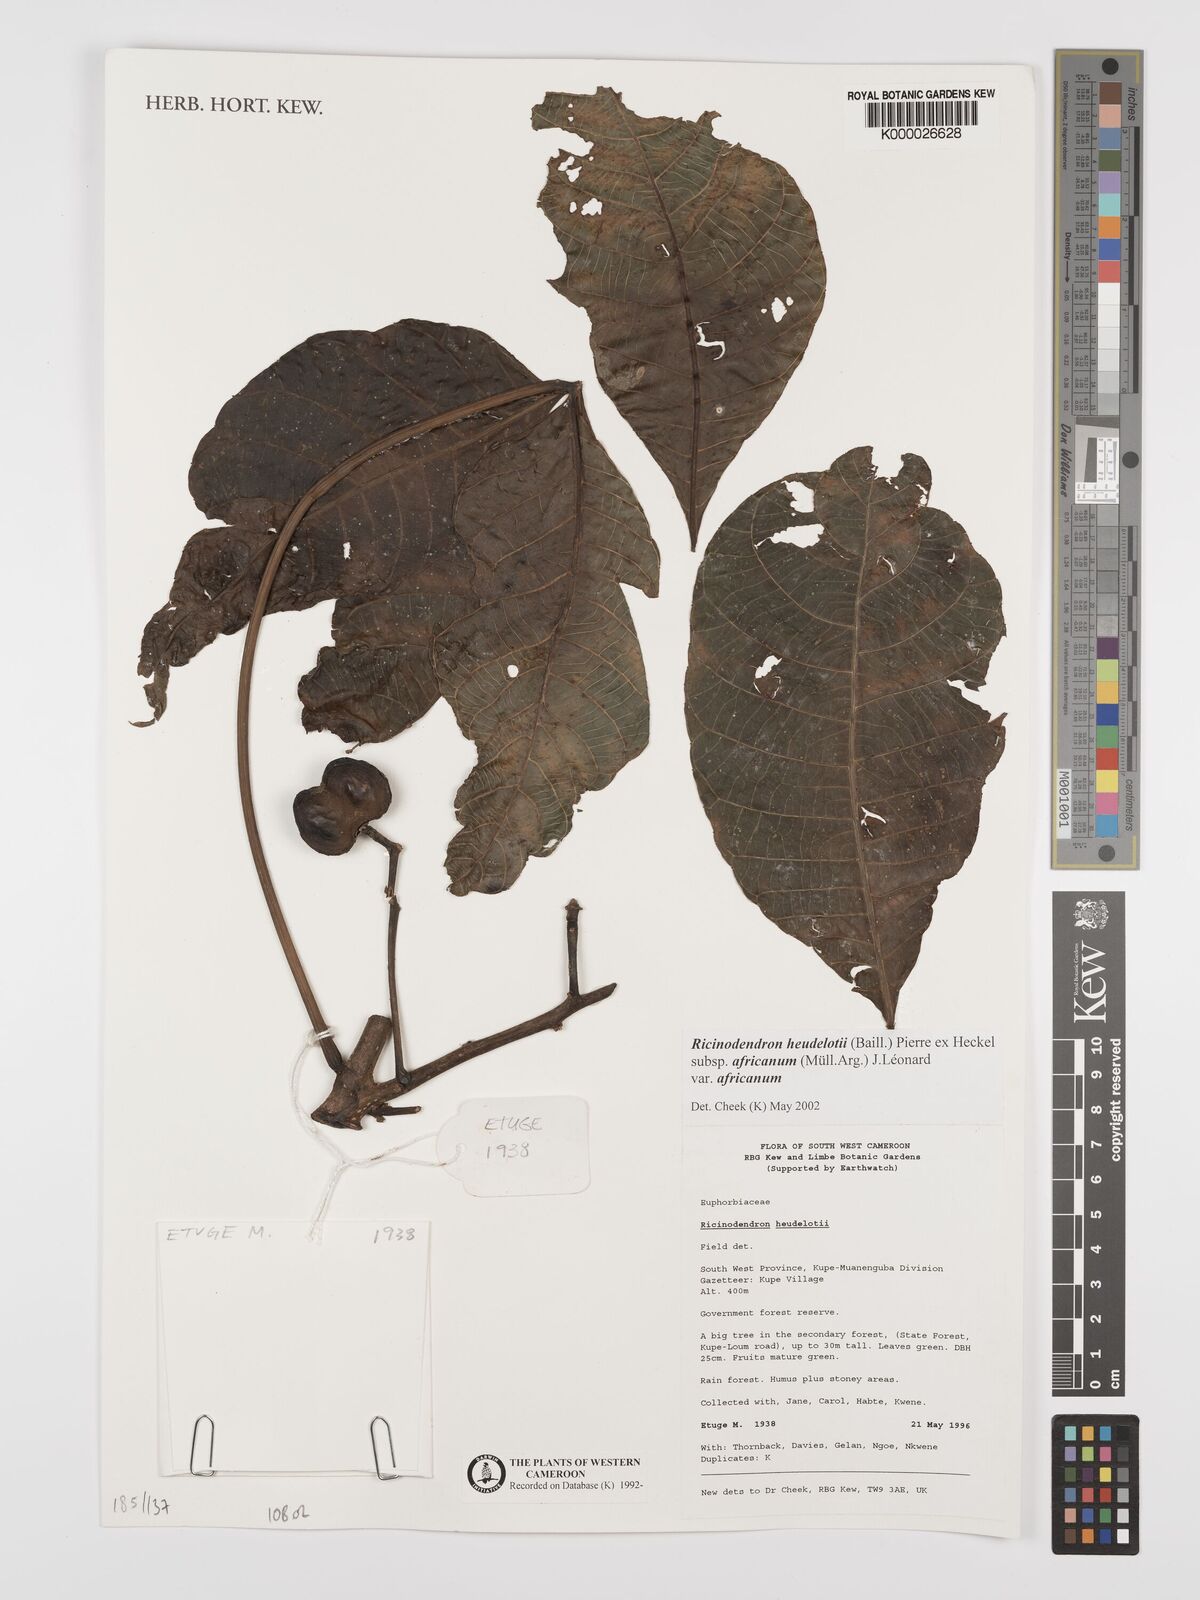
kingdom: Plantae
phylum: Tracheophyta
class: Magnoliopsida
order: Malpighiales
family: Euphorbiaceae
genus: Ricinodendron
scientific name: Ricinodendron heudelotii
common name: African nut-tree
